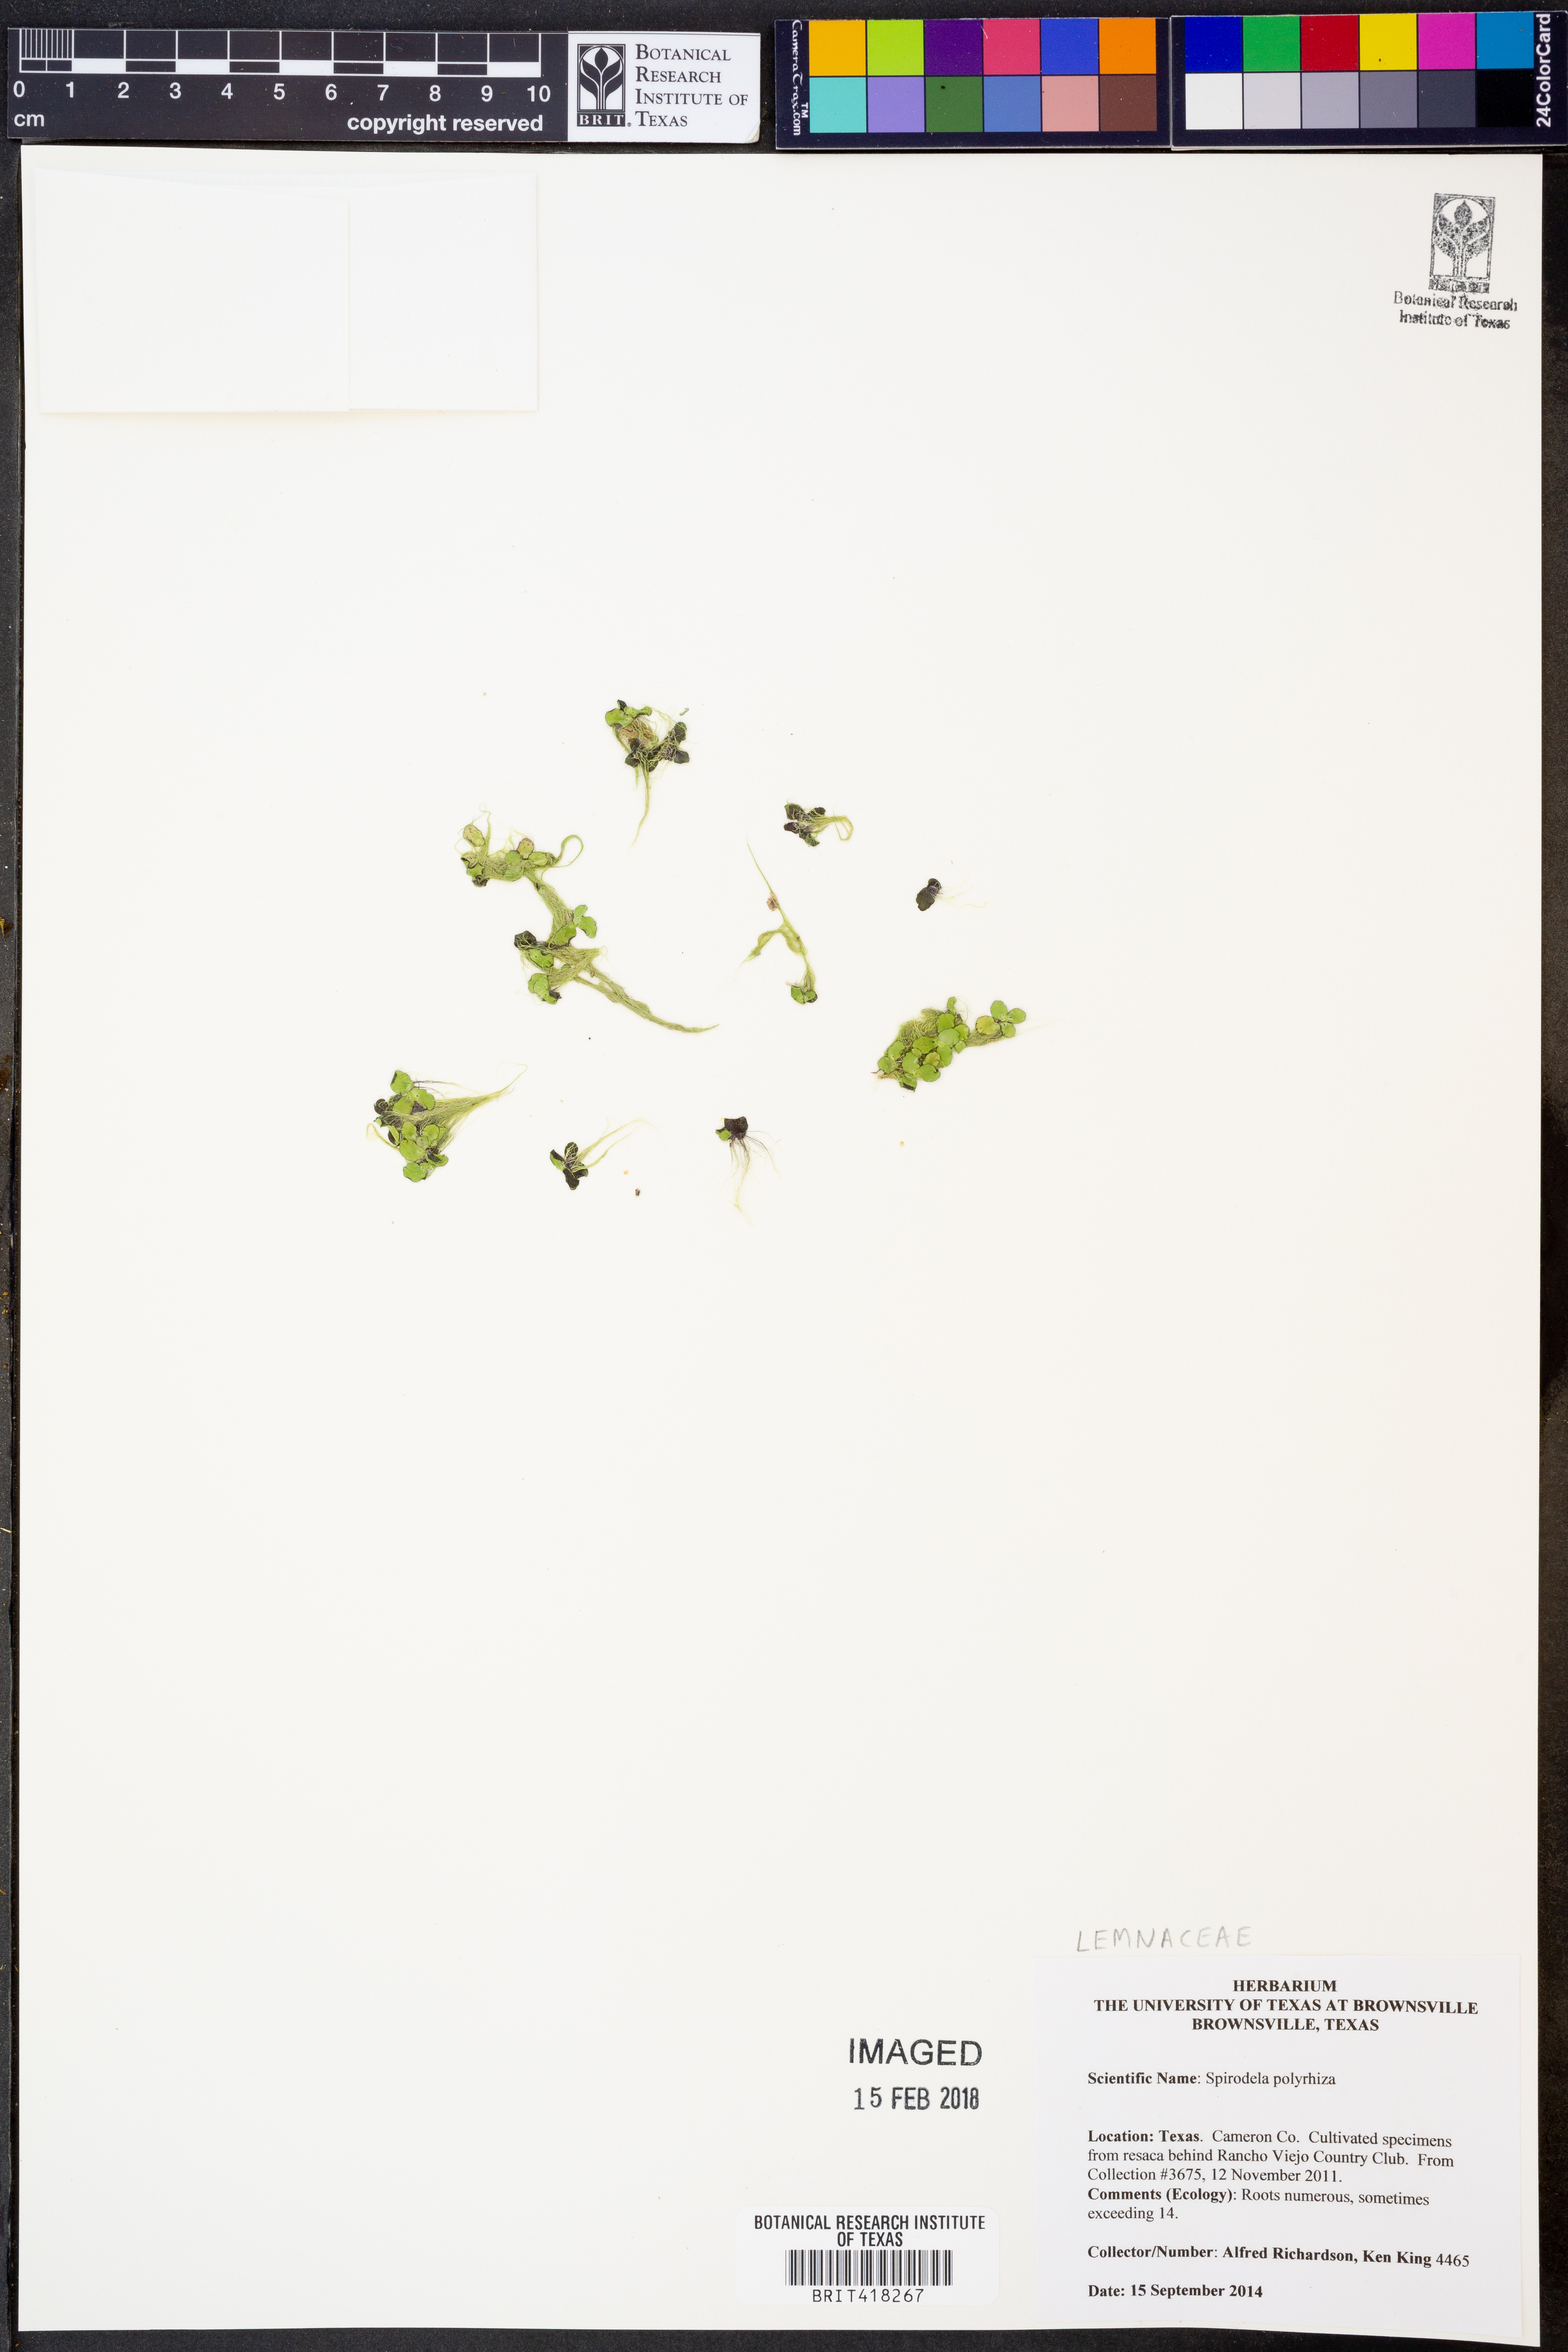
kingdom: Plantae
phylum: Tracheophyta
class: Liliopsida
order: Alismatales
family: Araceae
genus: Spirodela
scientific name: Spirodela polyrhiza
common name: Great duckweed
